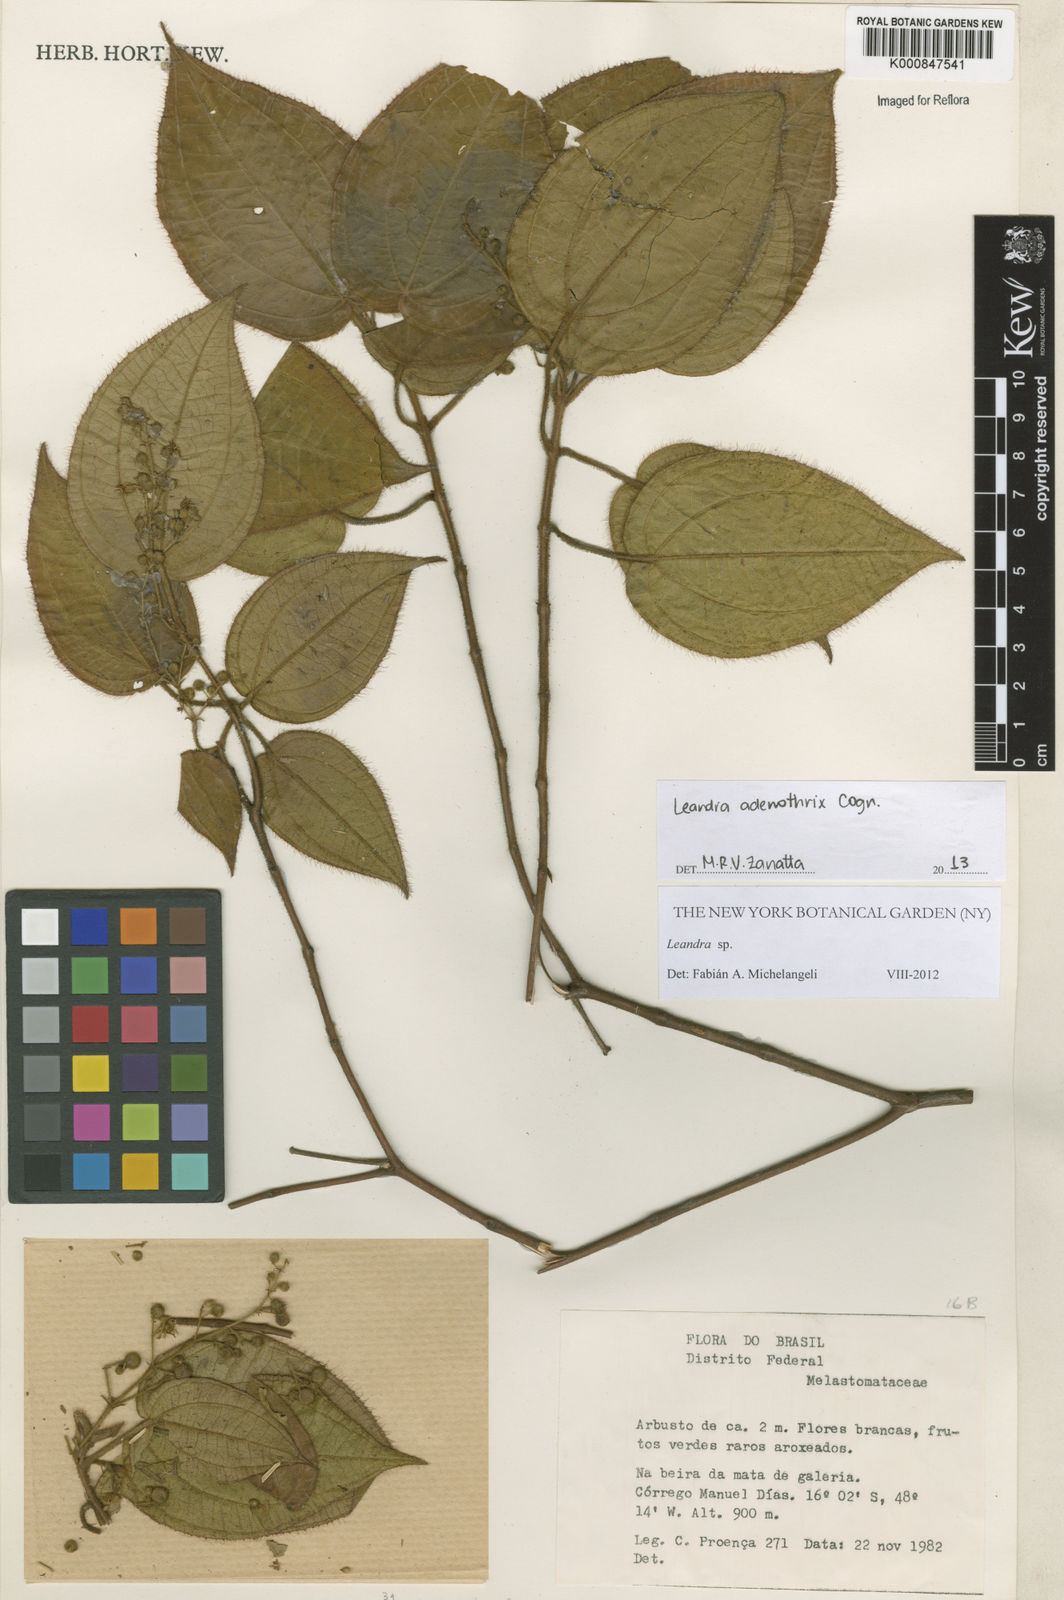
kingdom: Plantae
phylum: Tracheophyta
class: Magnoliopsida
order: Myrtales
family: Melastomataceae
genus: Miconia
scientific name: Miconia adenothrix
